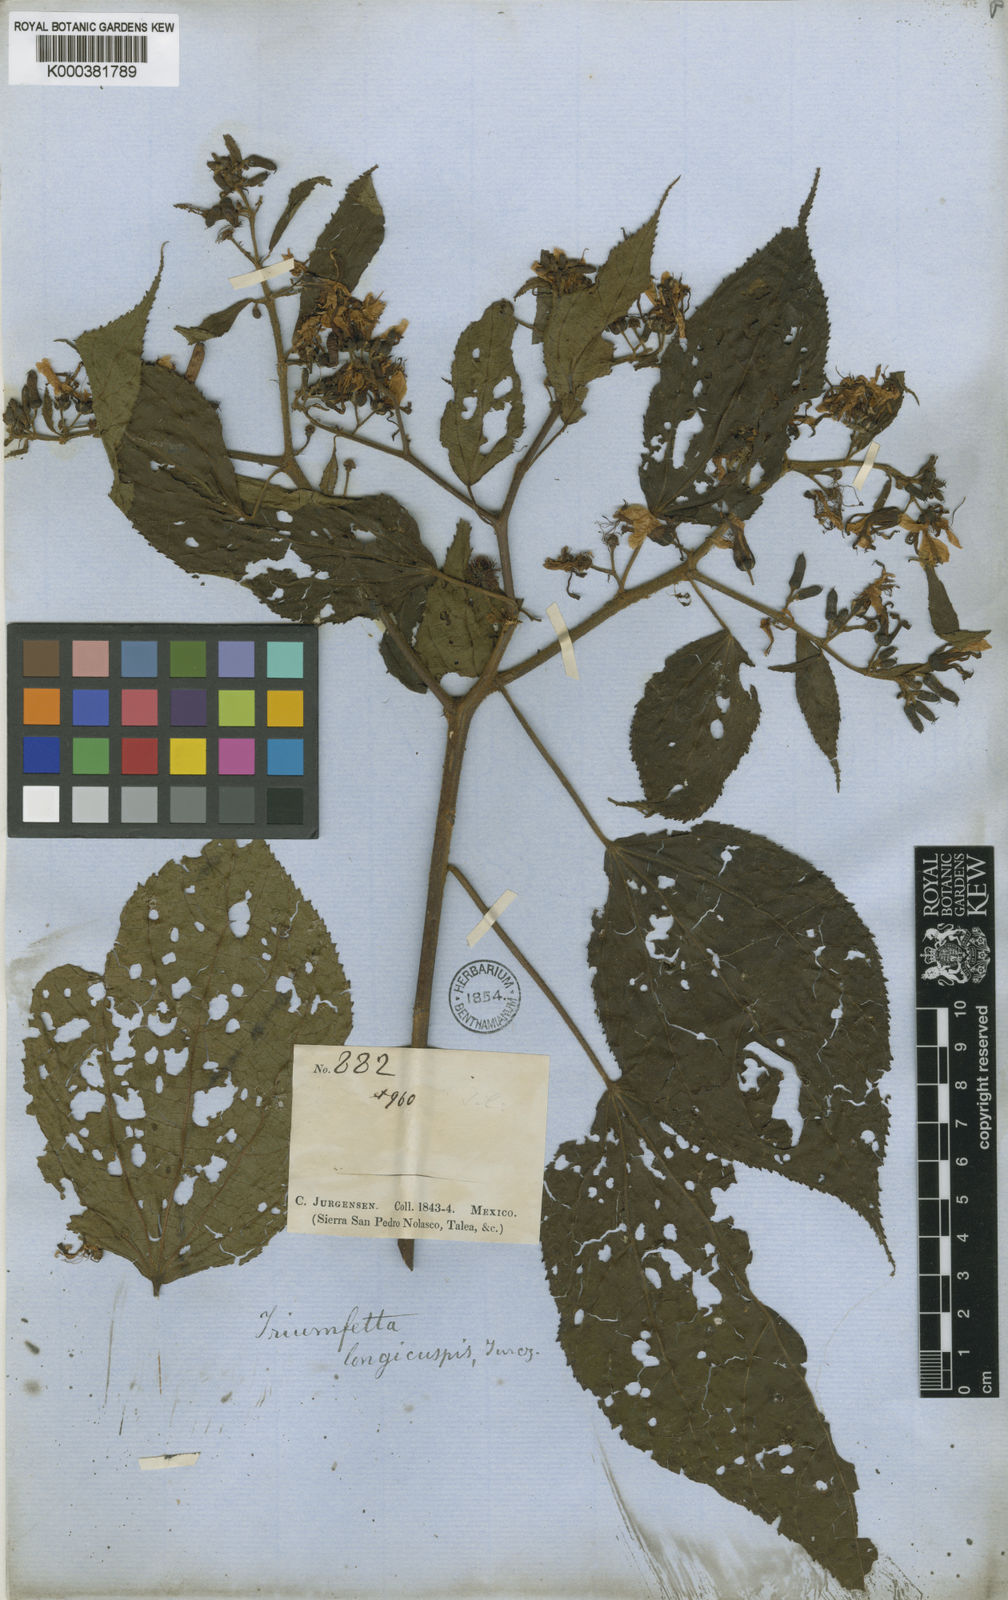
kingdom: Plantae
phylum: Tracheophyta
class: Magnoliopsida
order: Malvales
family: Malvaceae
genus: Triumfetta
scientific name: Triumfetta grandiflora
